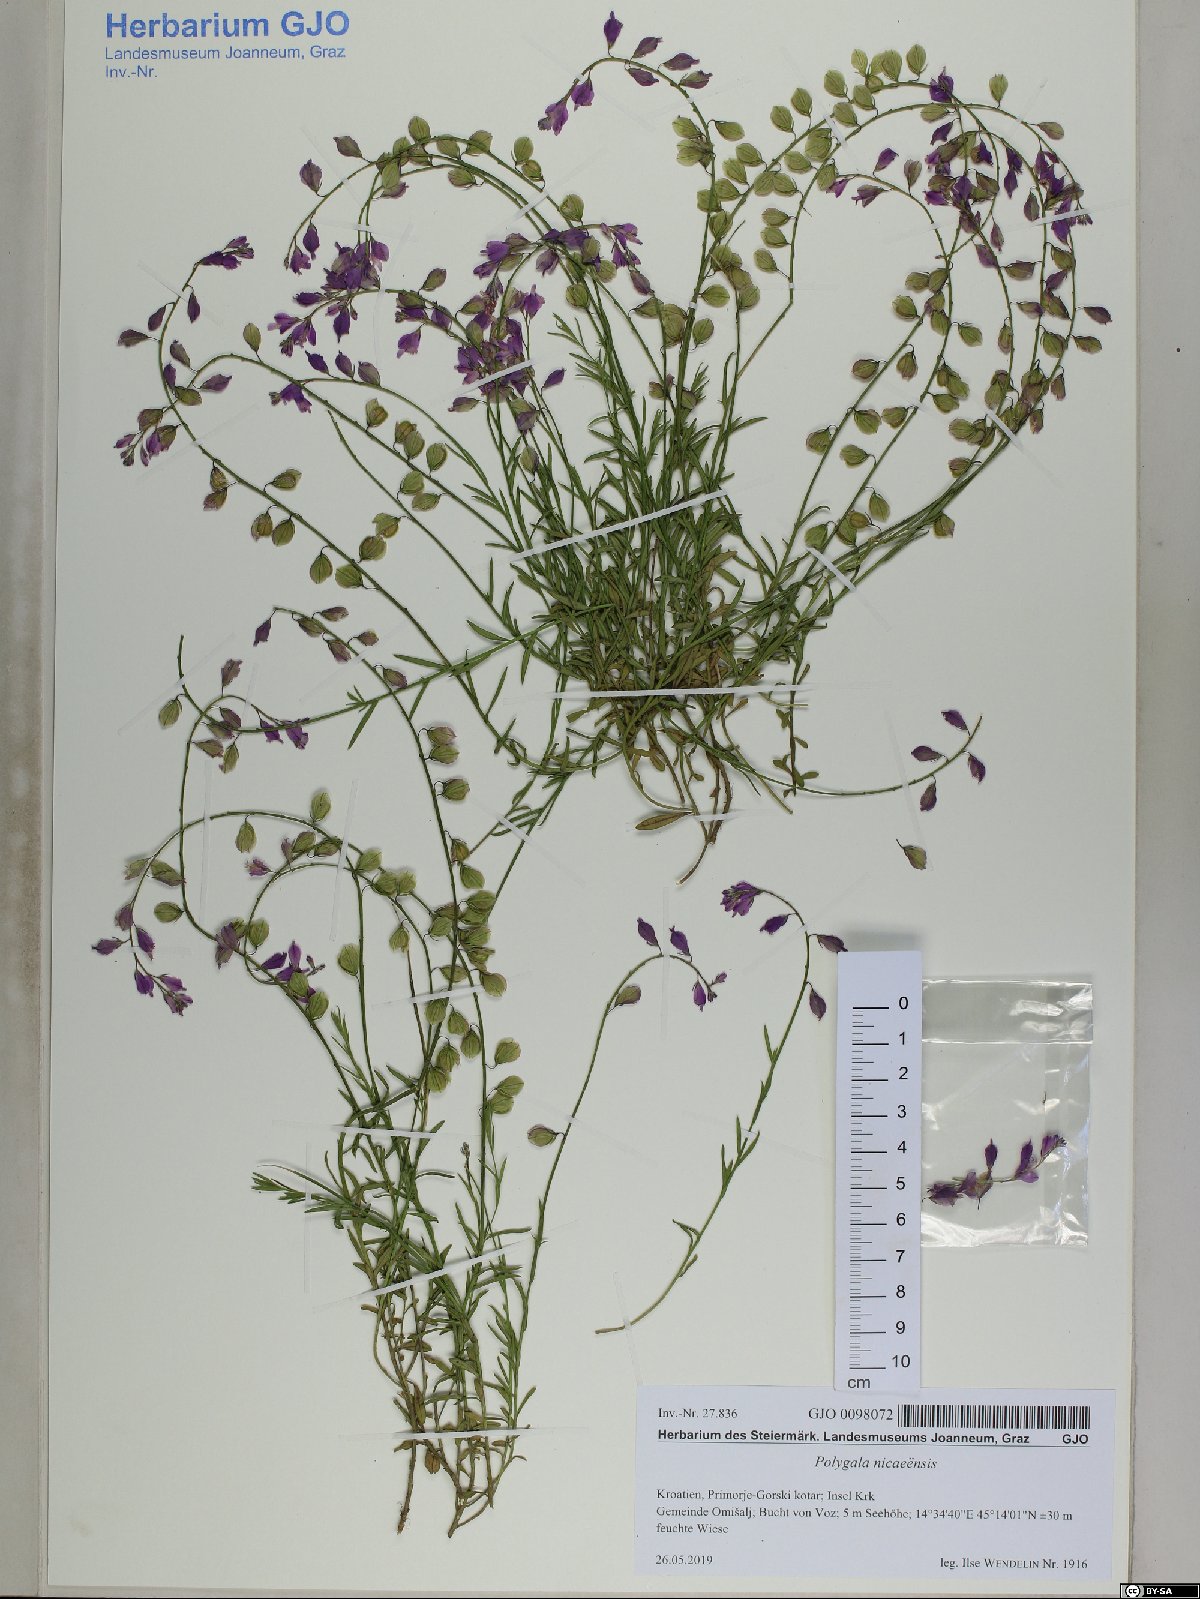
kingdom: Plantae
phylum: Tracheophyta
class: Magnoliopsida
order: Fabales
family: Polygalaceae
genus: Polygala
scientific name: Polygala
